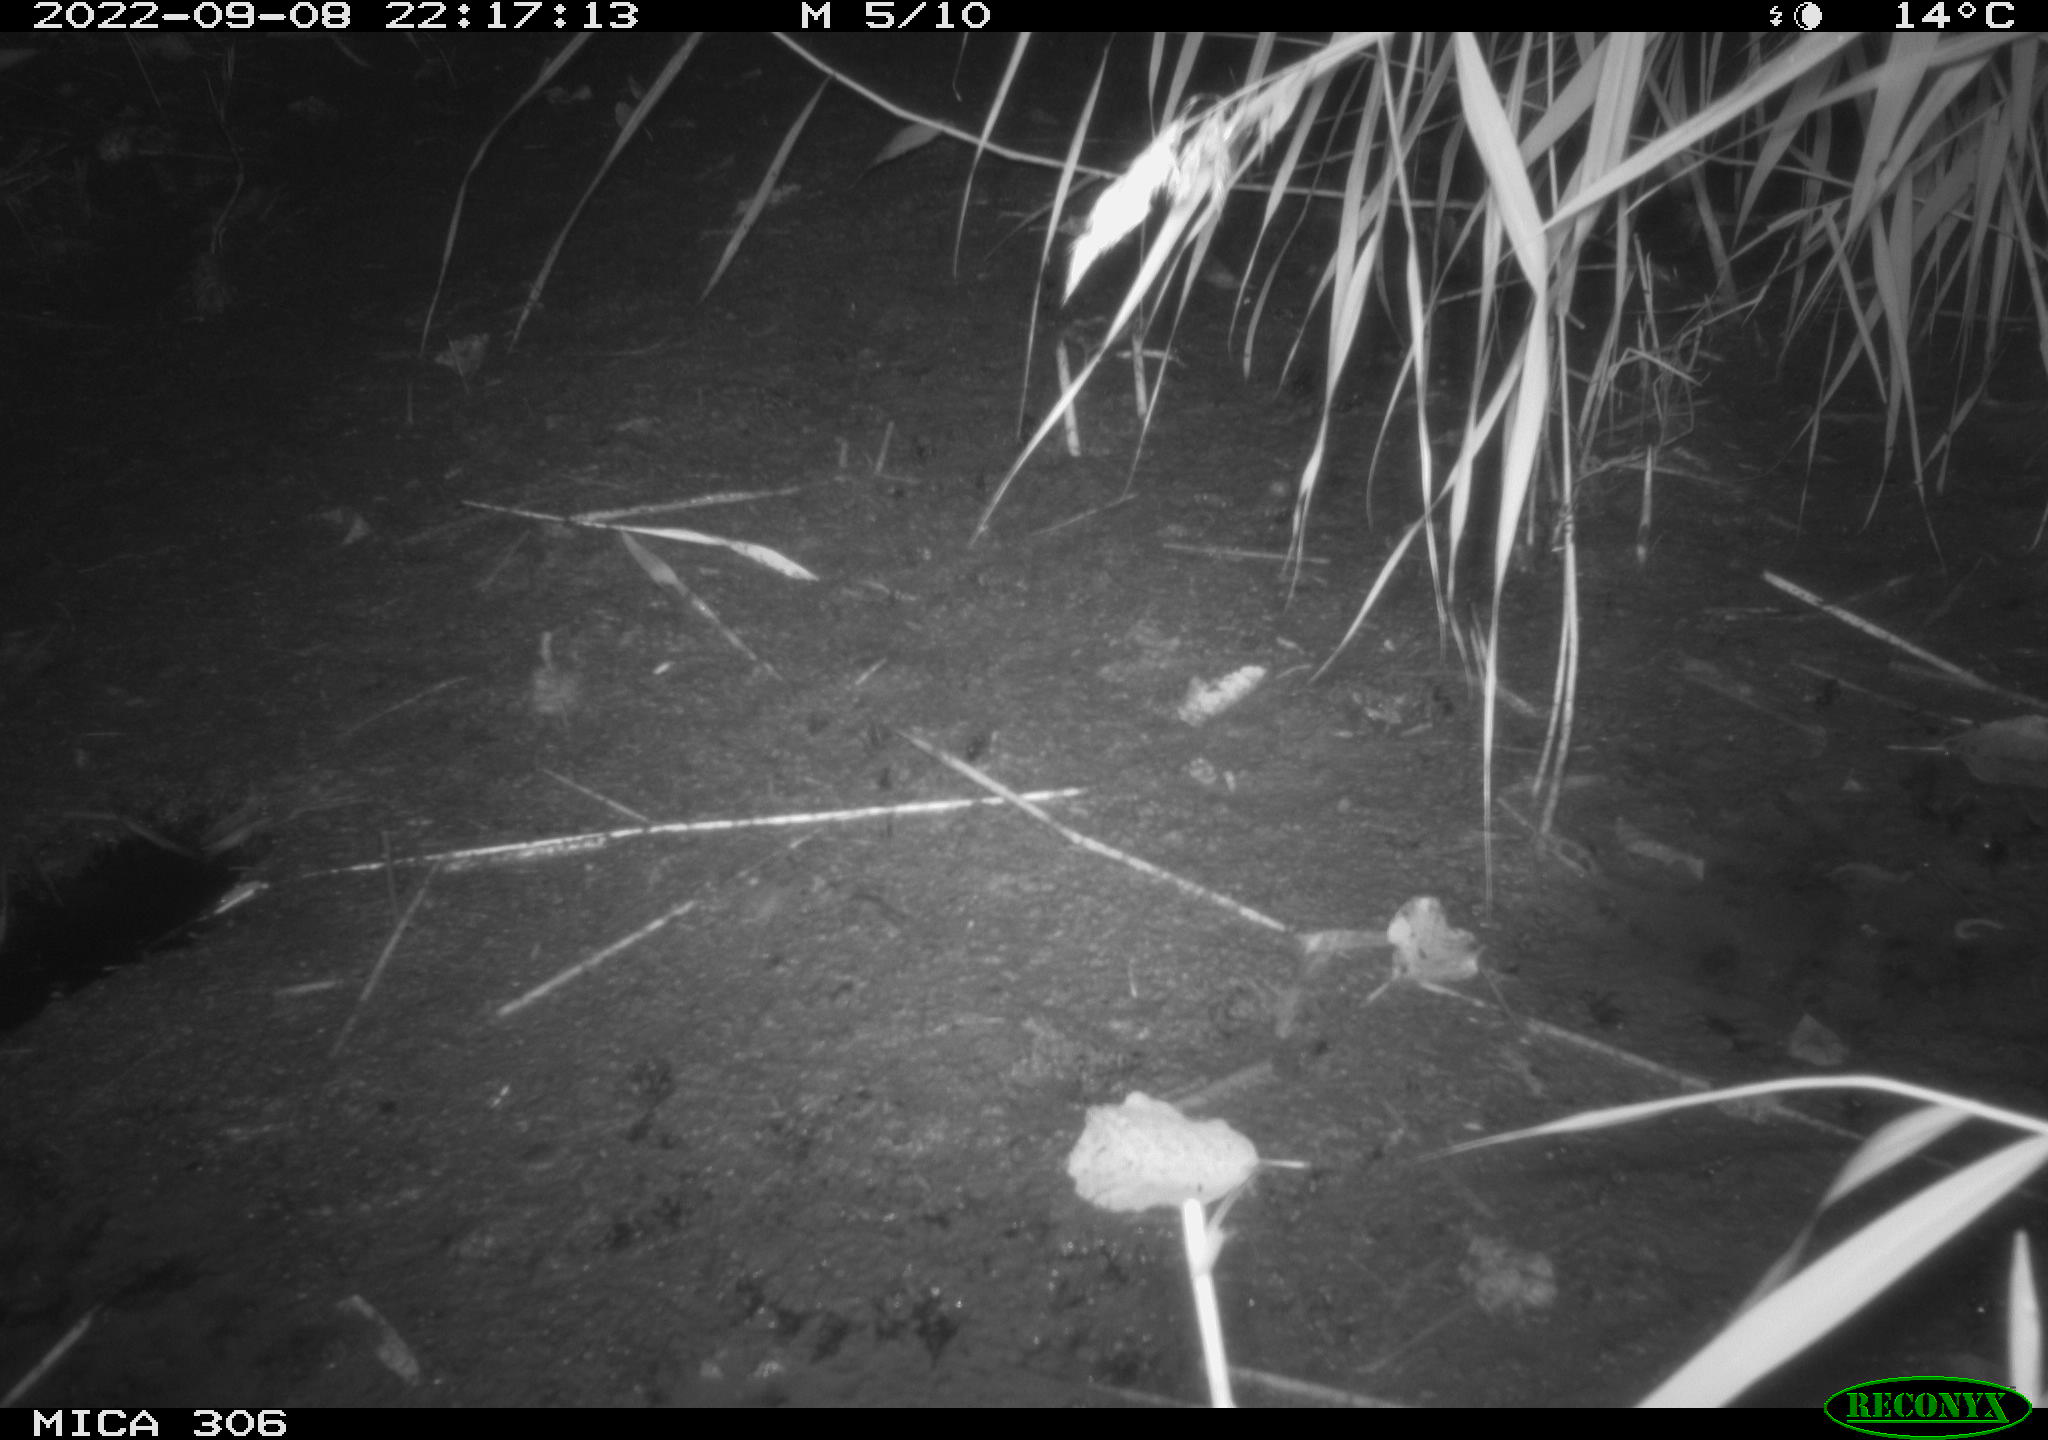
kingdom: Animalia
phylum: Chordata
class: Mammalia
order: Rodentia
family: Muridae
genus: Rattus
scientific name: Rattus norvegicus
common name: Brown rat
